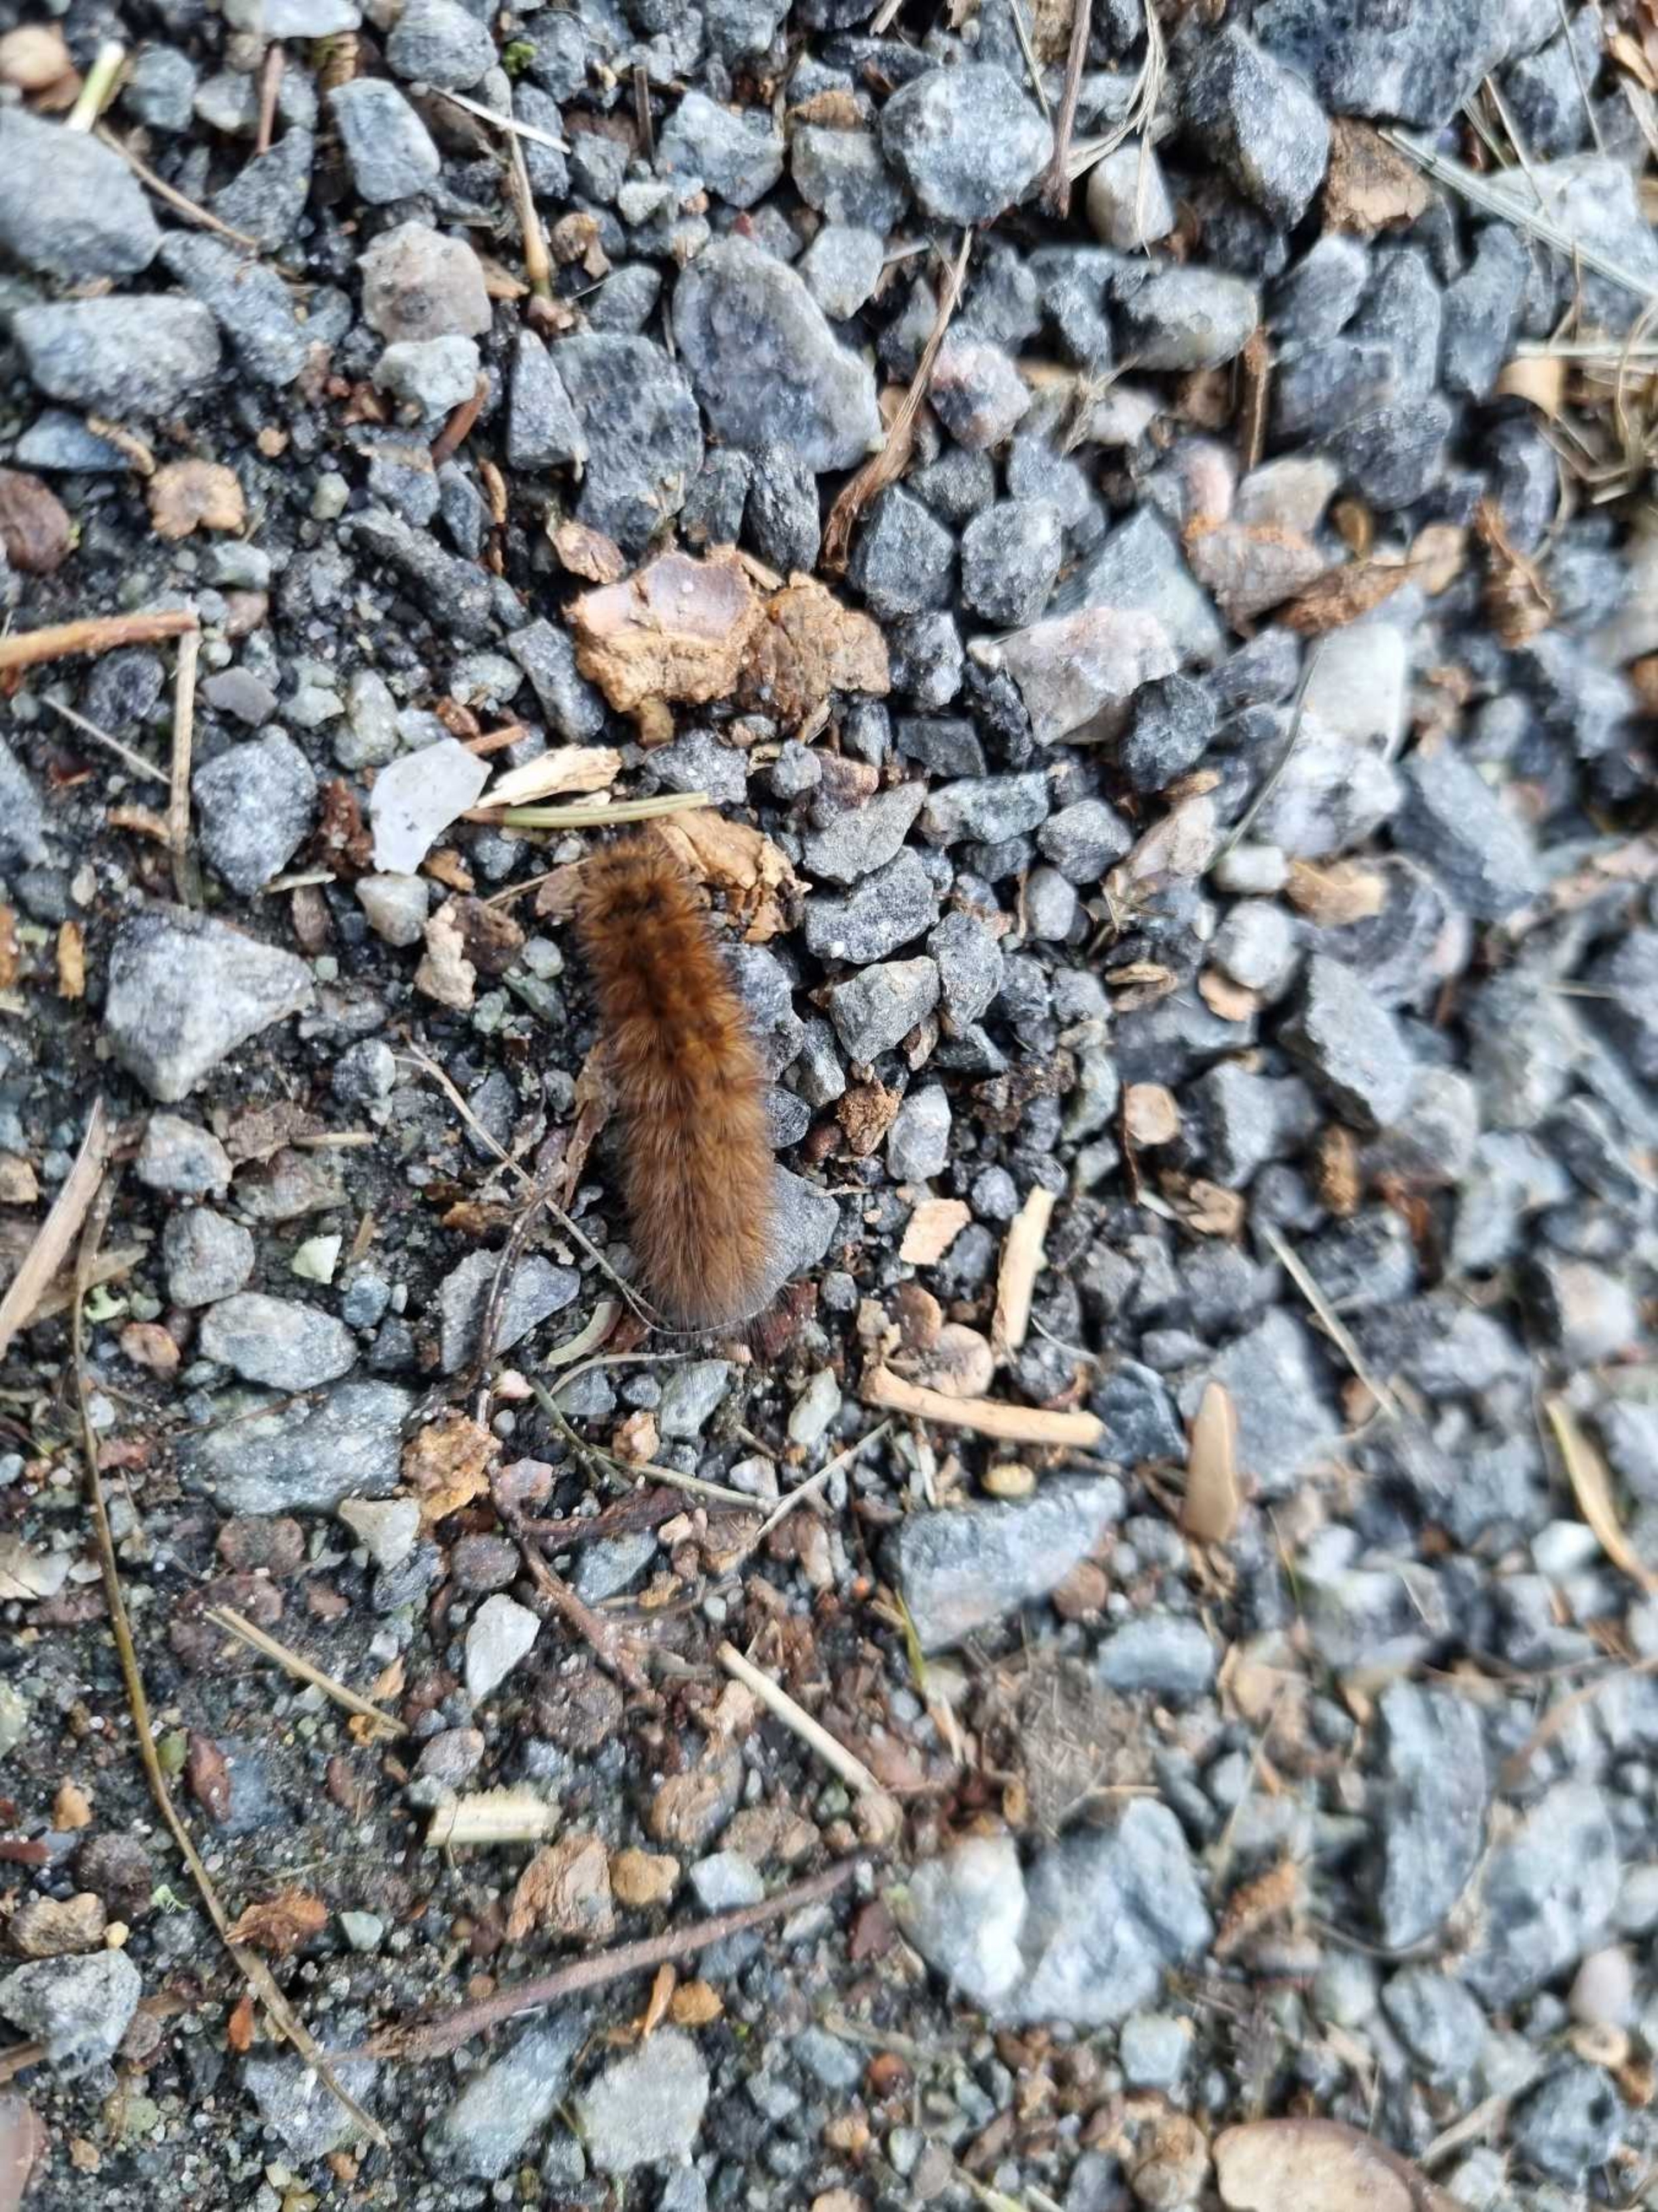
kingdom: Animalia
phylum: Arthropoda
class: Insecta
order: Lepidoptera
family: Erebidae
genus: Phragmatobia
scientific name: Phragmatobia fuliginosa
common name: Kanelbjørn
